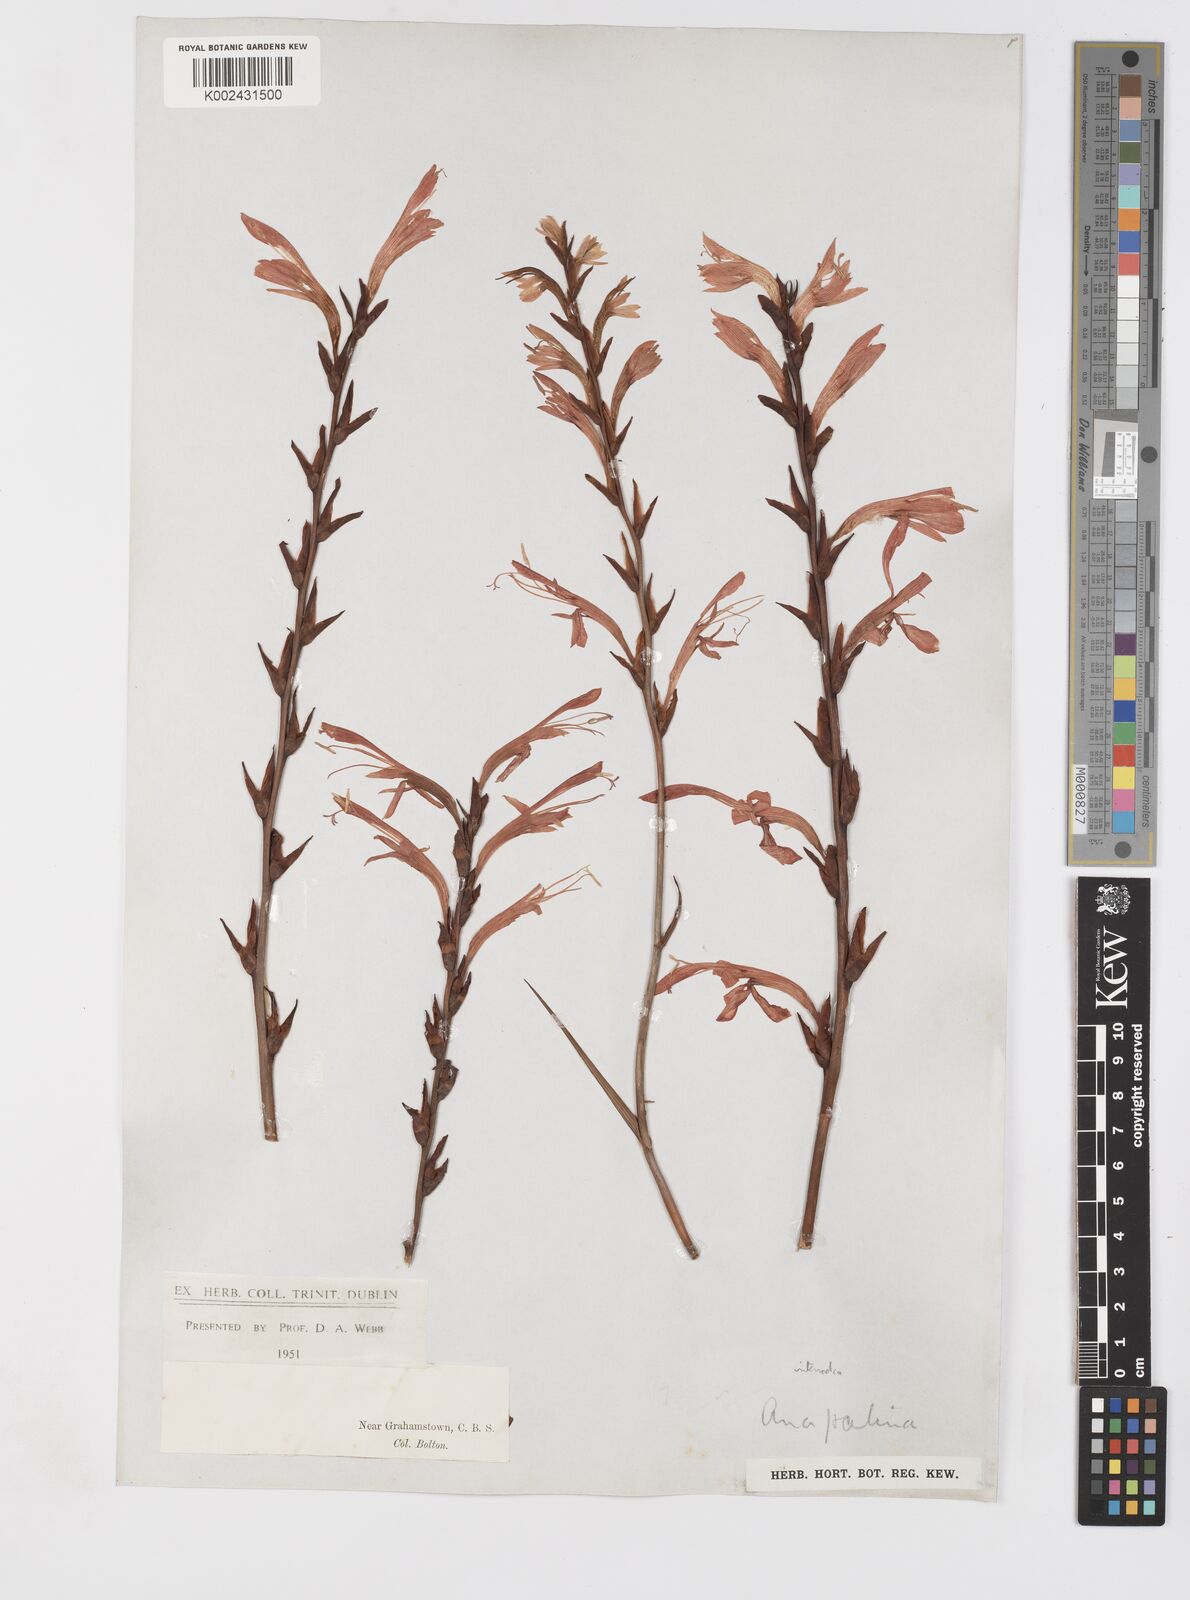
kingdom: Plantae
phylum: Tracheophyta
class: Liliopsida
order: Asparagales
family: Iridaceae
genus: Tritoniopsis
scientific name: Tritoniopsis intermedia
